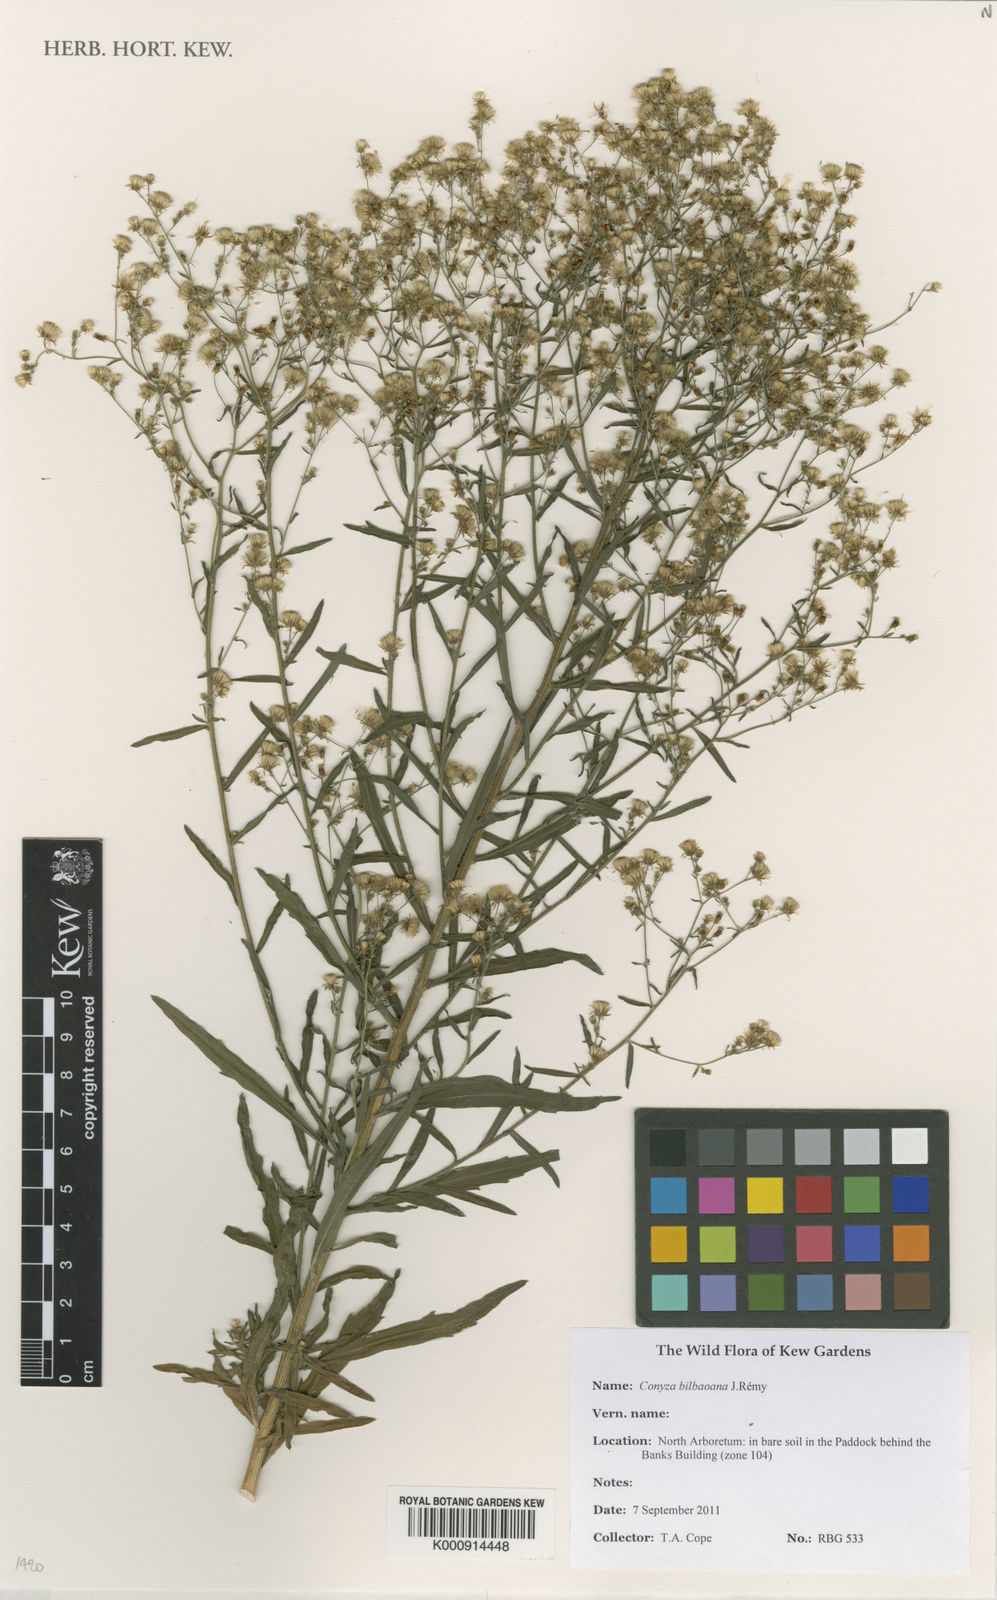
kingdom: Plantae
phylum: Tracheophyta
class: Magnoliopsida
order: Asterales
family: Asteraceae
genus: Conyza
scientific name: Conyza
